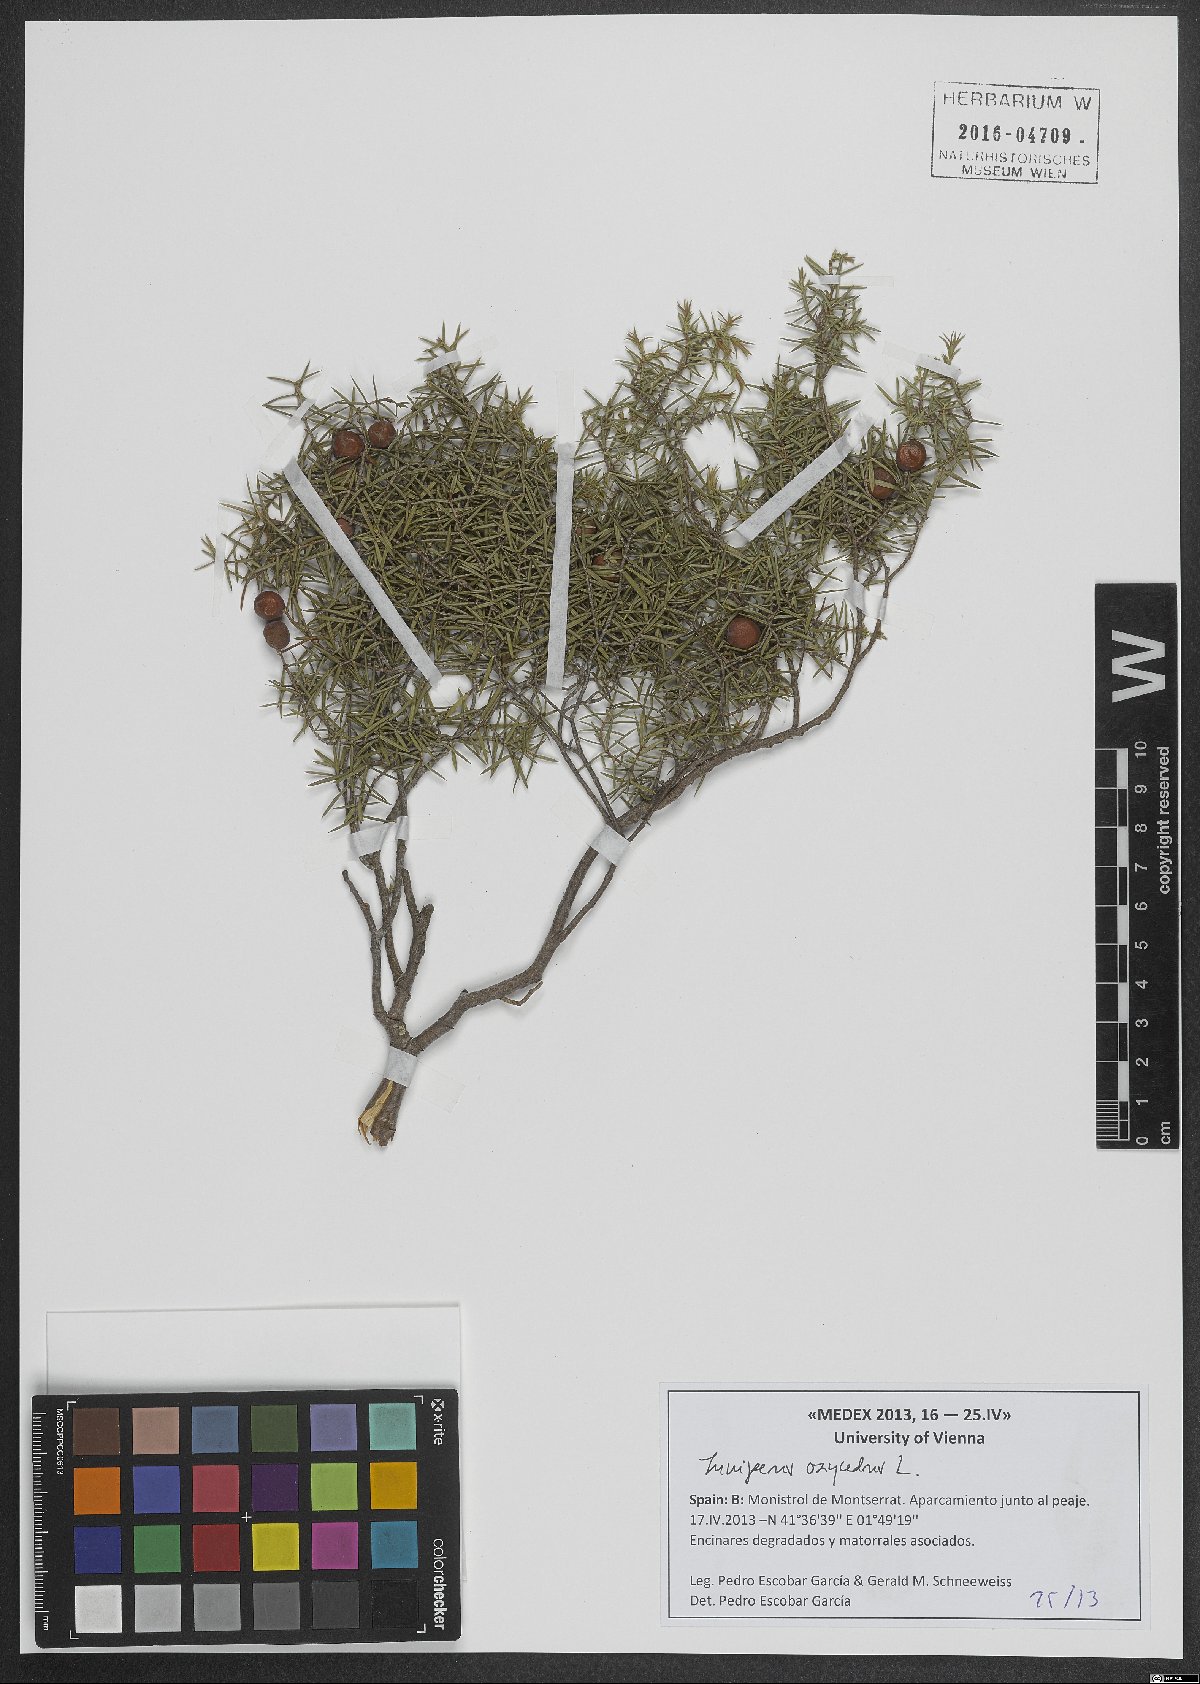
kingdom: Plantae
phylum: Tracheophyta
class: Pinopsida
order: Pinales
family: Cupressaceae
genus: Juniperus
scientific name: Juniperus oxycedrus
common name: Prickly juniper
